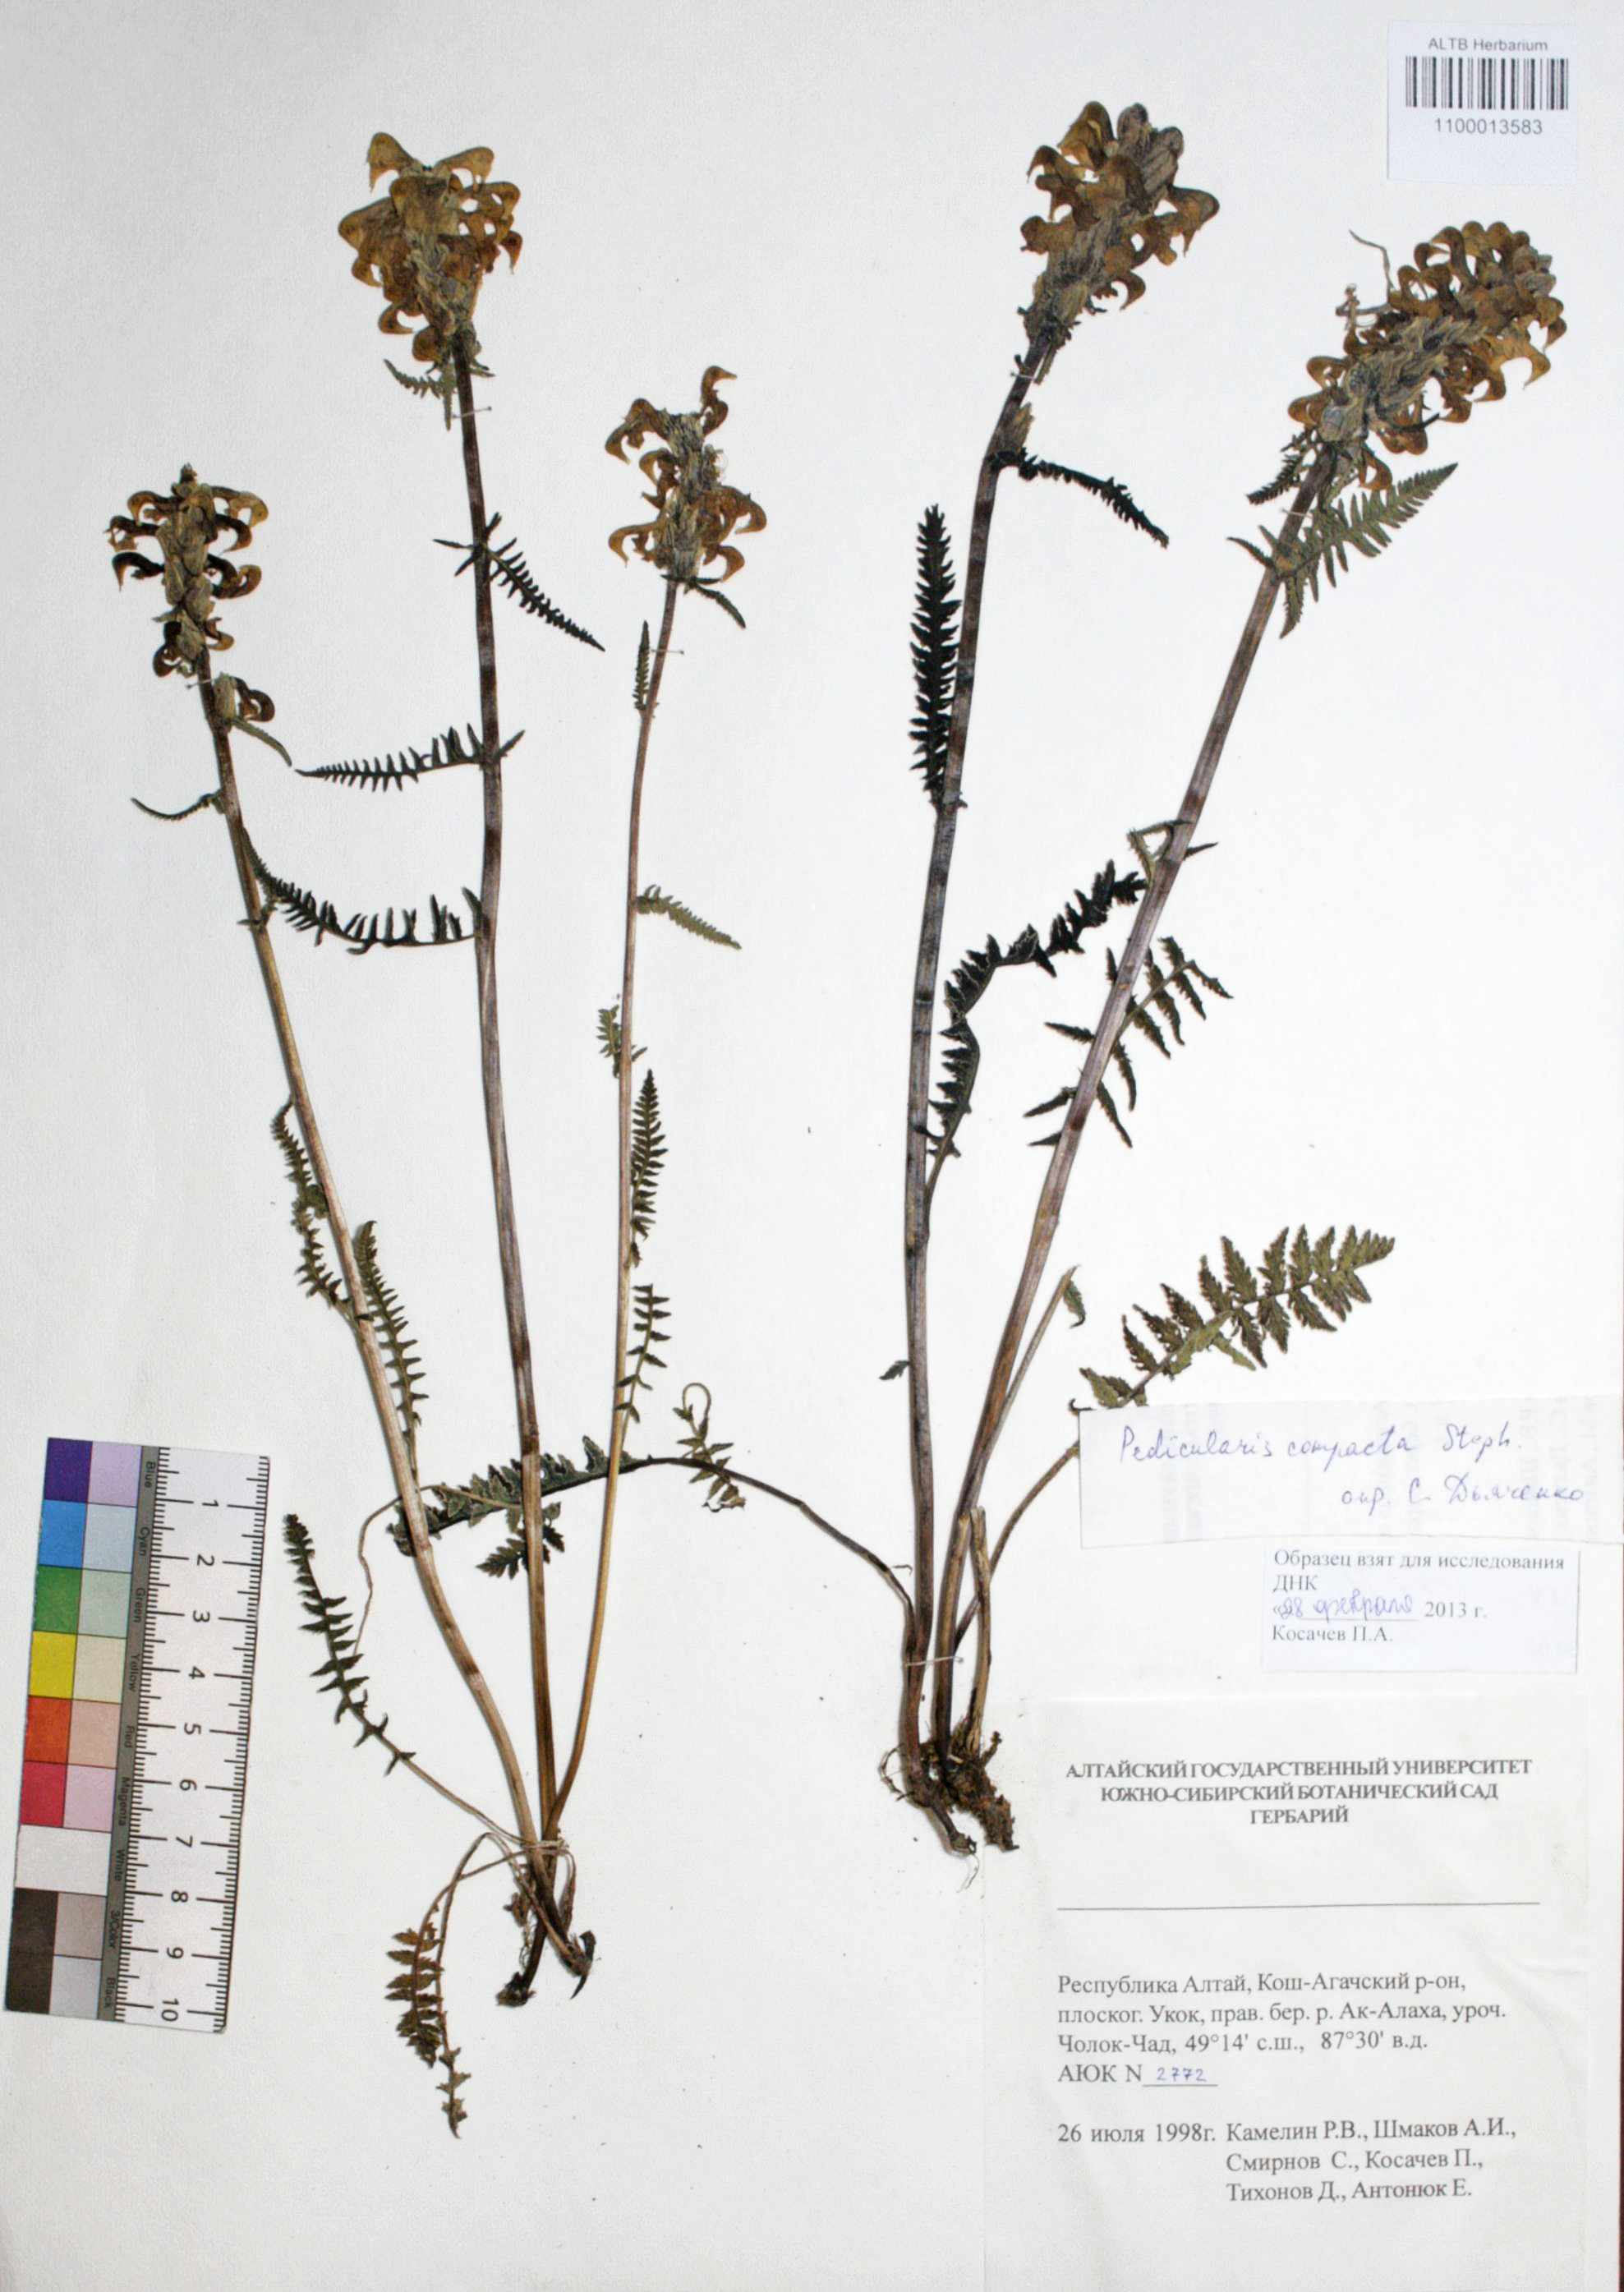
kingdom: Plantae
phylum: Tracheophyta
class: Magnoliopsida
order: Lamiales
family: Orobanchaceae
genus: Pedicularis
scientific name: Pedicularis compacta
